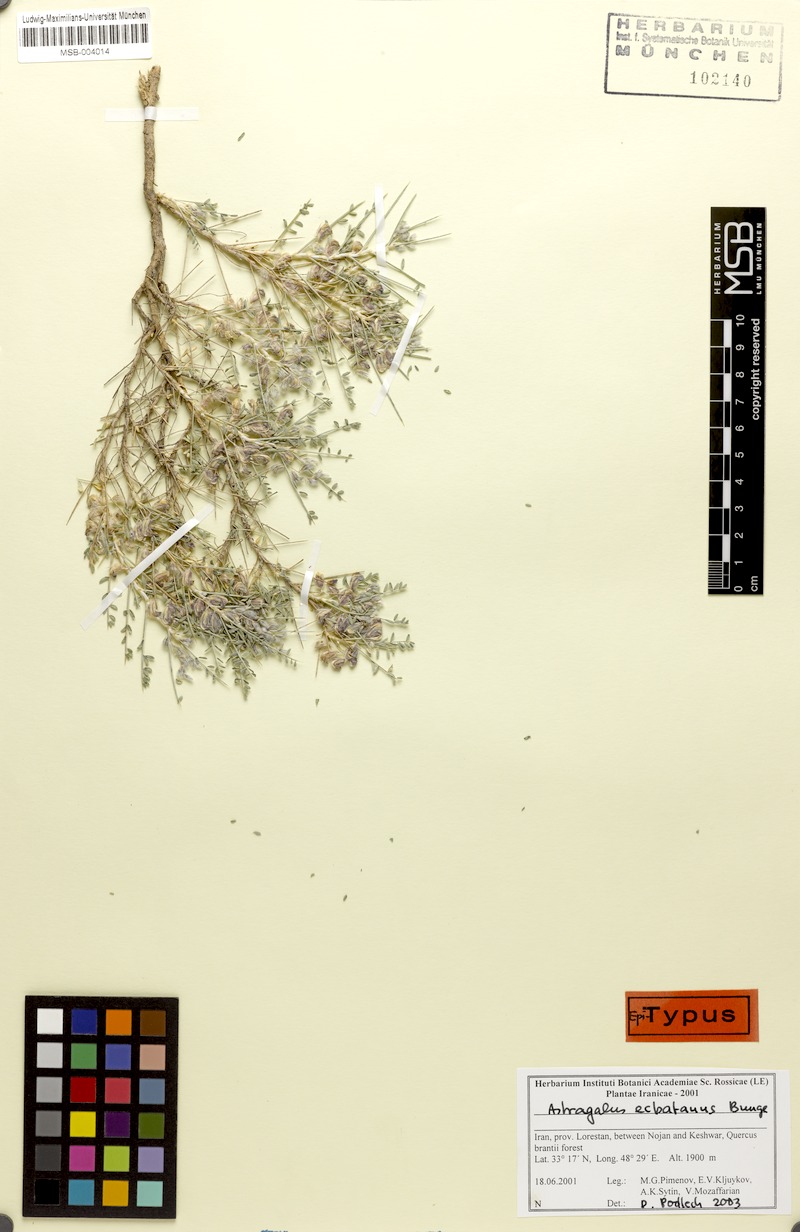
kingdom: Plantae
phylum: Tracheophyta
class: Magnoliopsida
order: Fabales
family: Fabaceae
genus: Astragalus
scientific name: Astragalus ecbatanus
